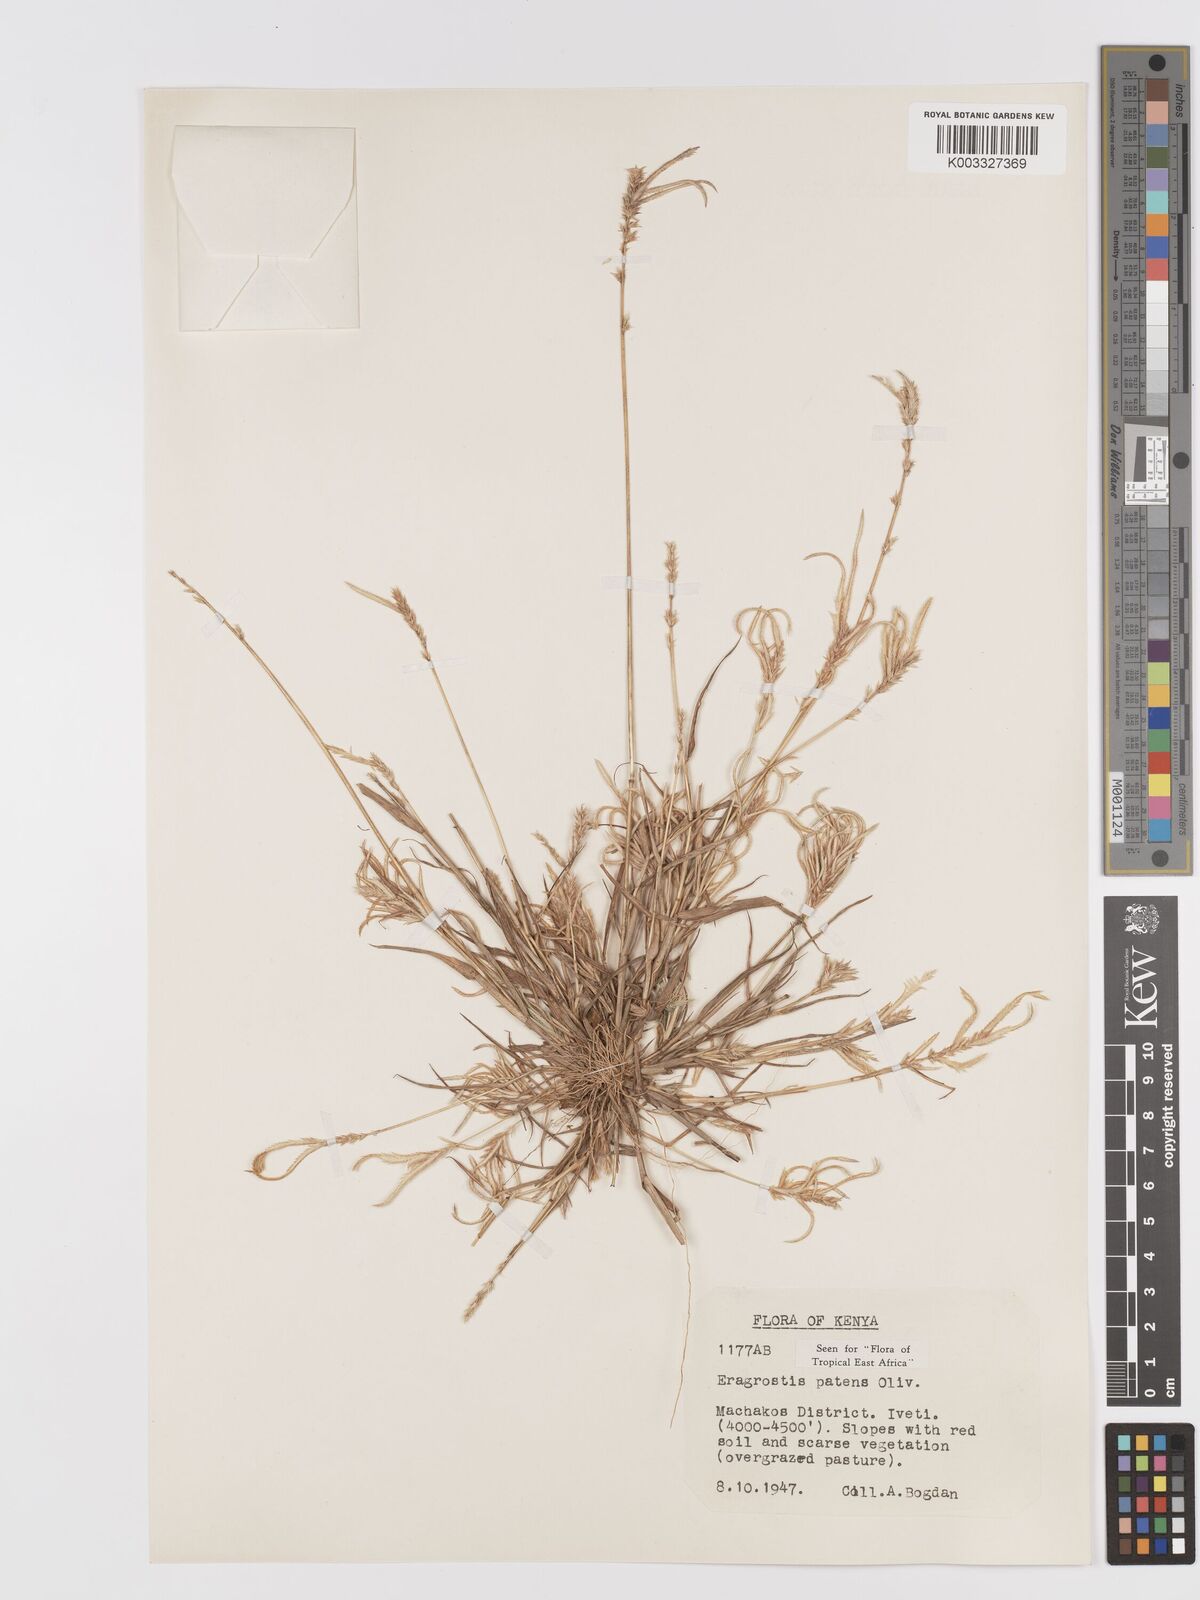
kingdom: Plantae
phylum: Tracheophyta
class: Liliopsida
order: Poales
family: Poaceae
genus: Eragrostis
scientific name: Eragrostis patens
